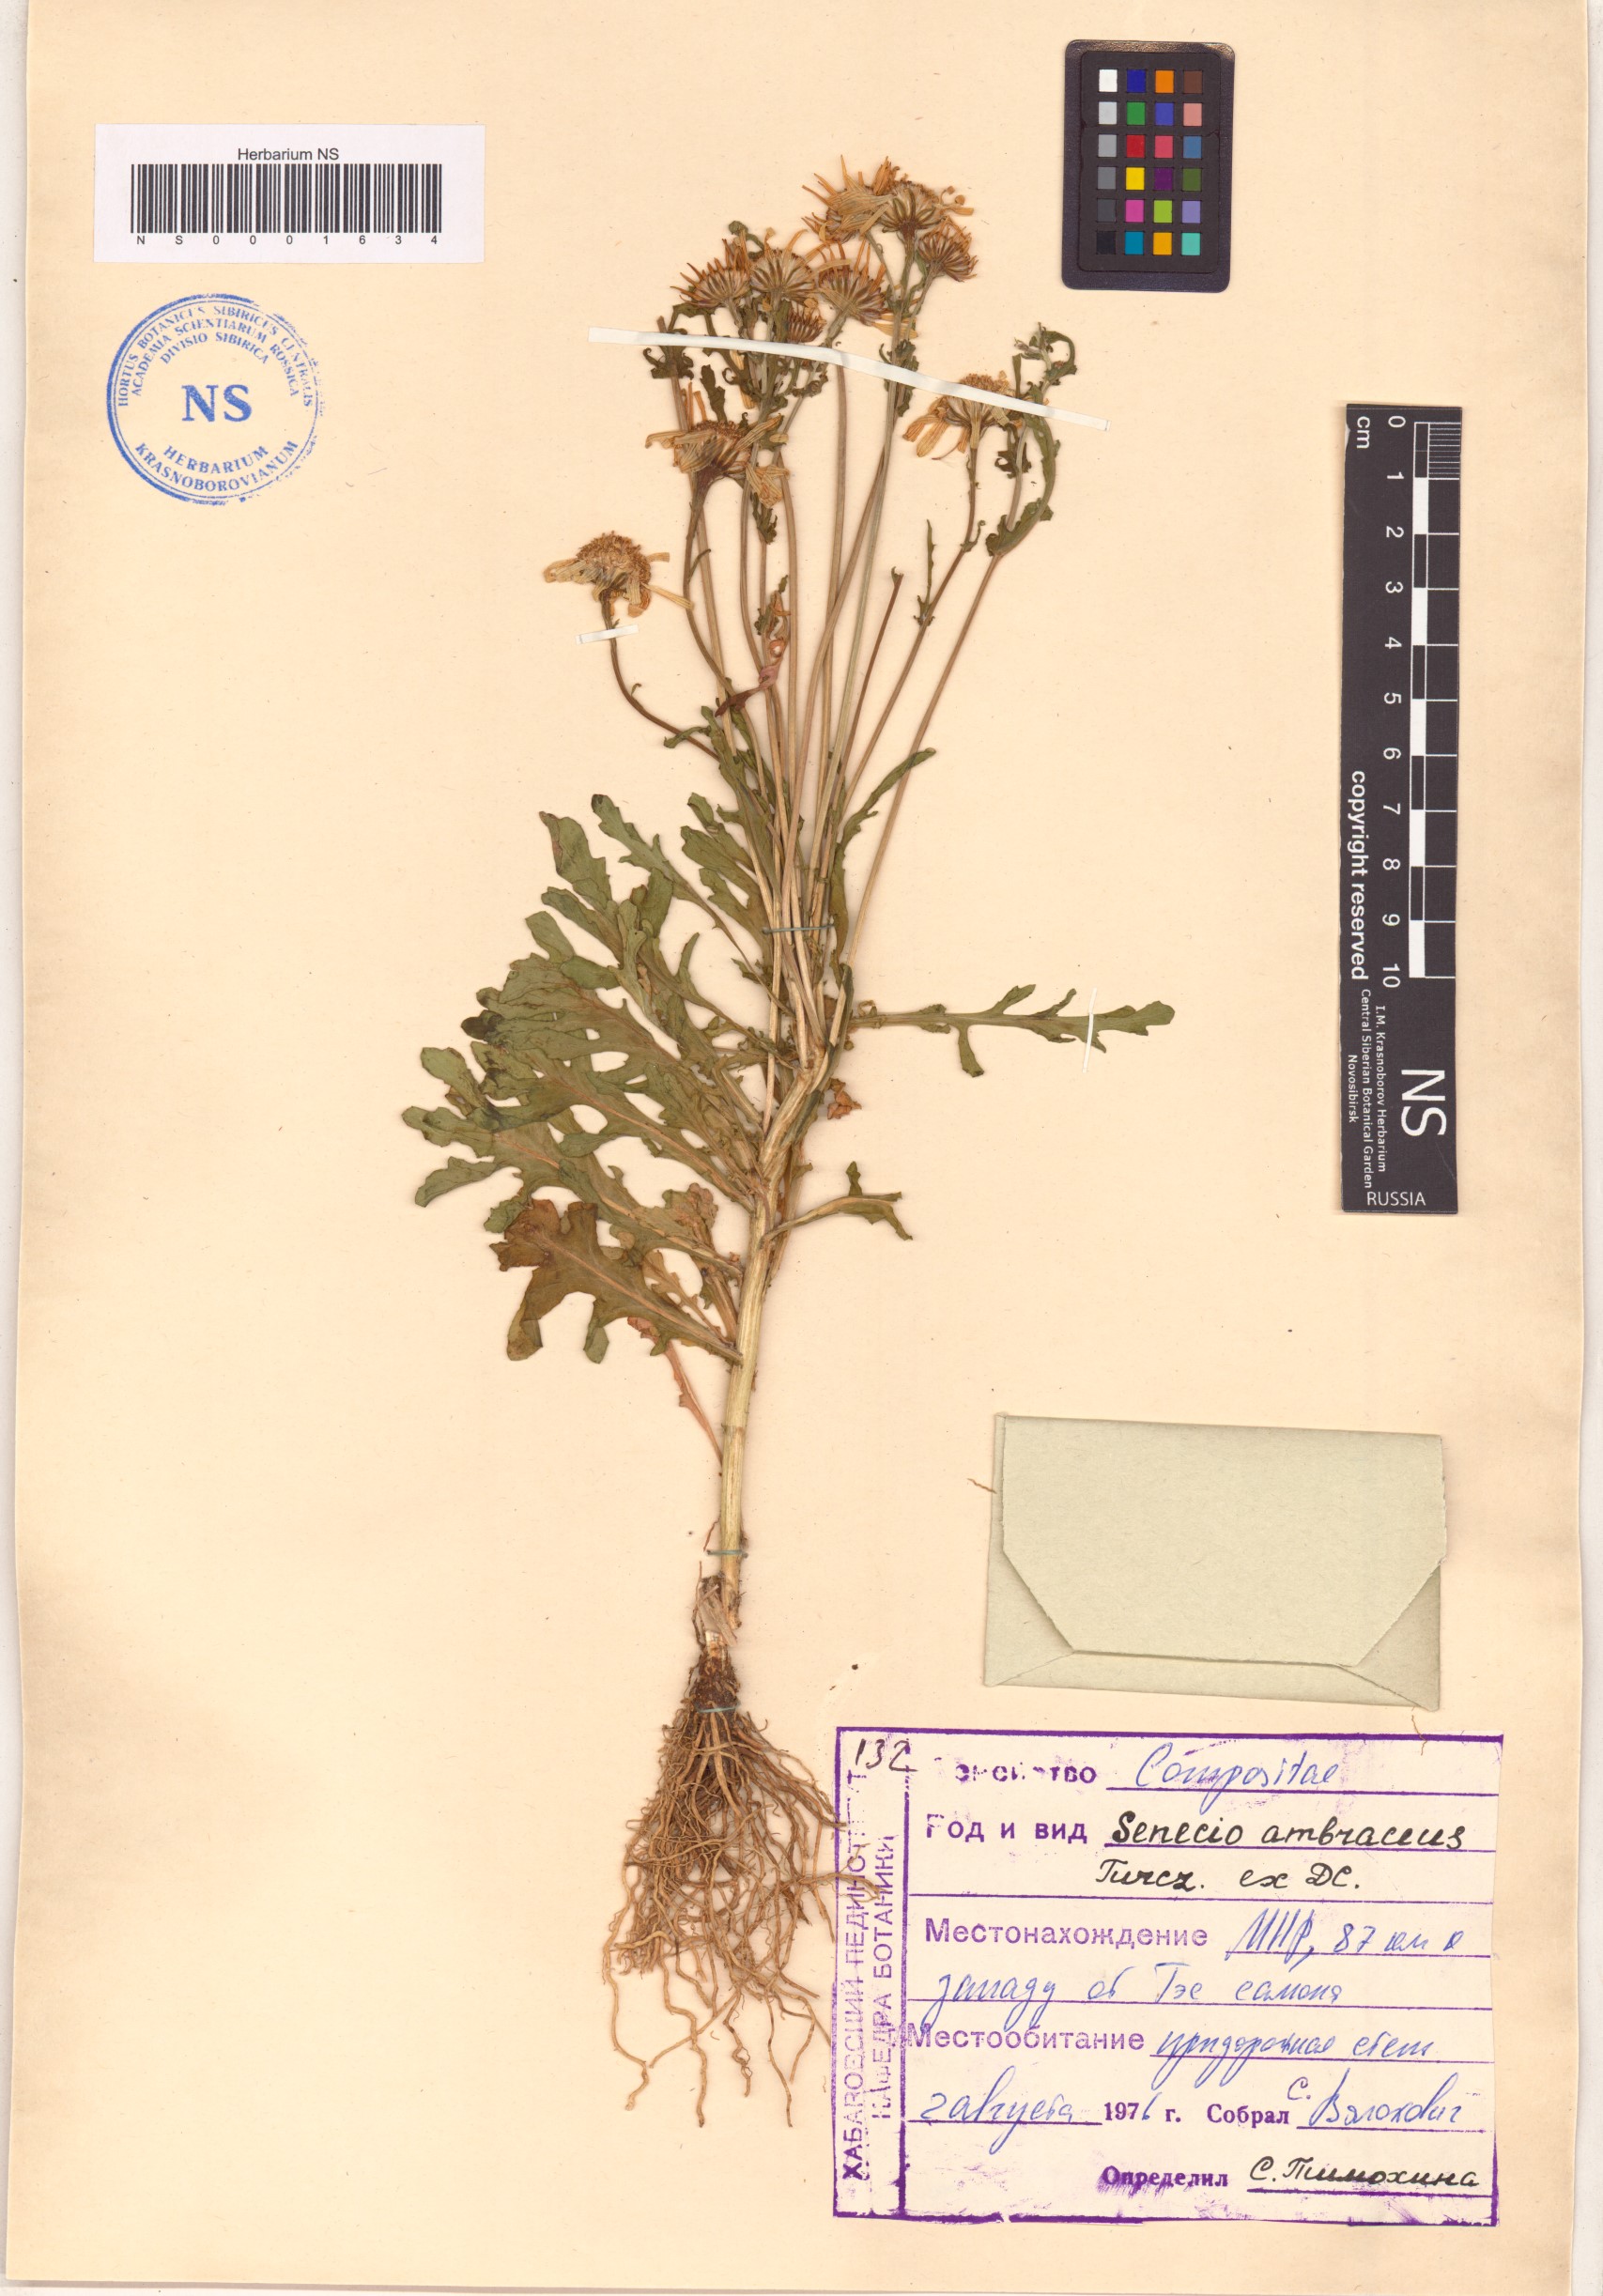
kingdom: Plantae
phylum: Tracheophyta
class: Magnoliopsida
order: Asterales
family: Asteraceae
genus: Jacobaea
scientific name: Jacobaea ambracea
